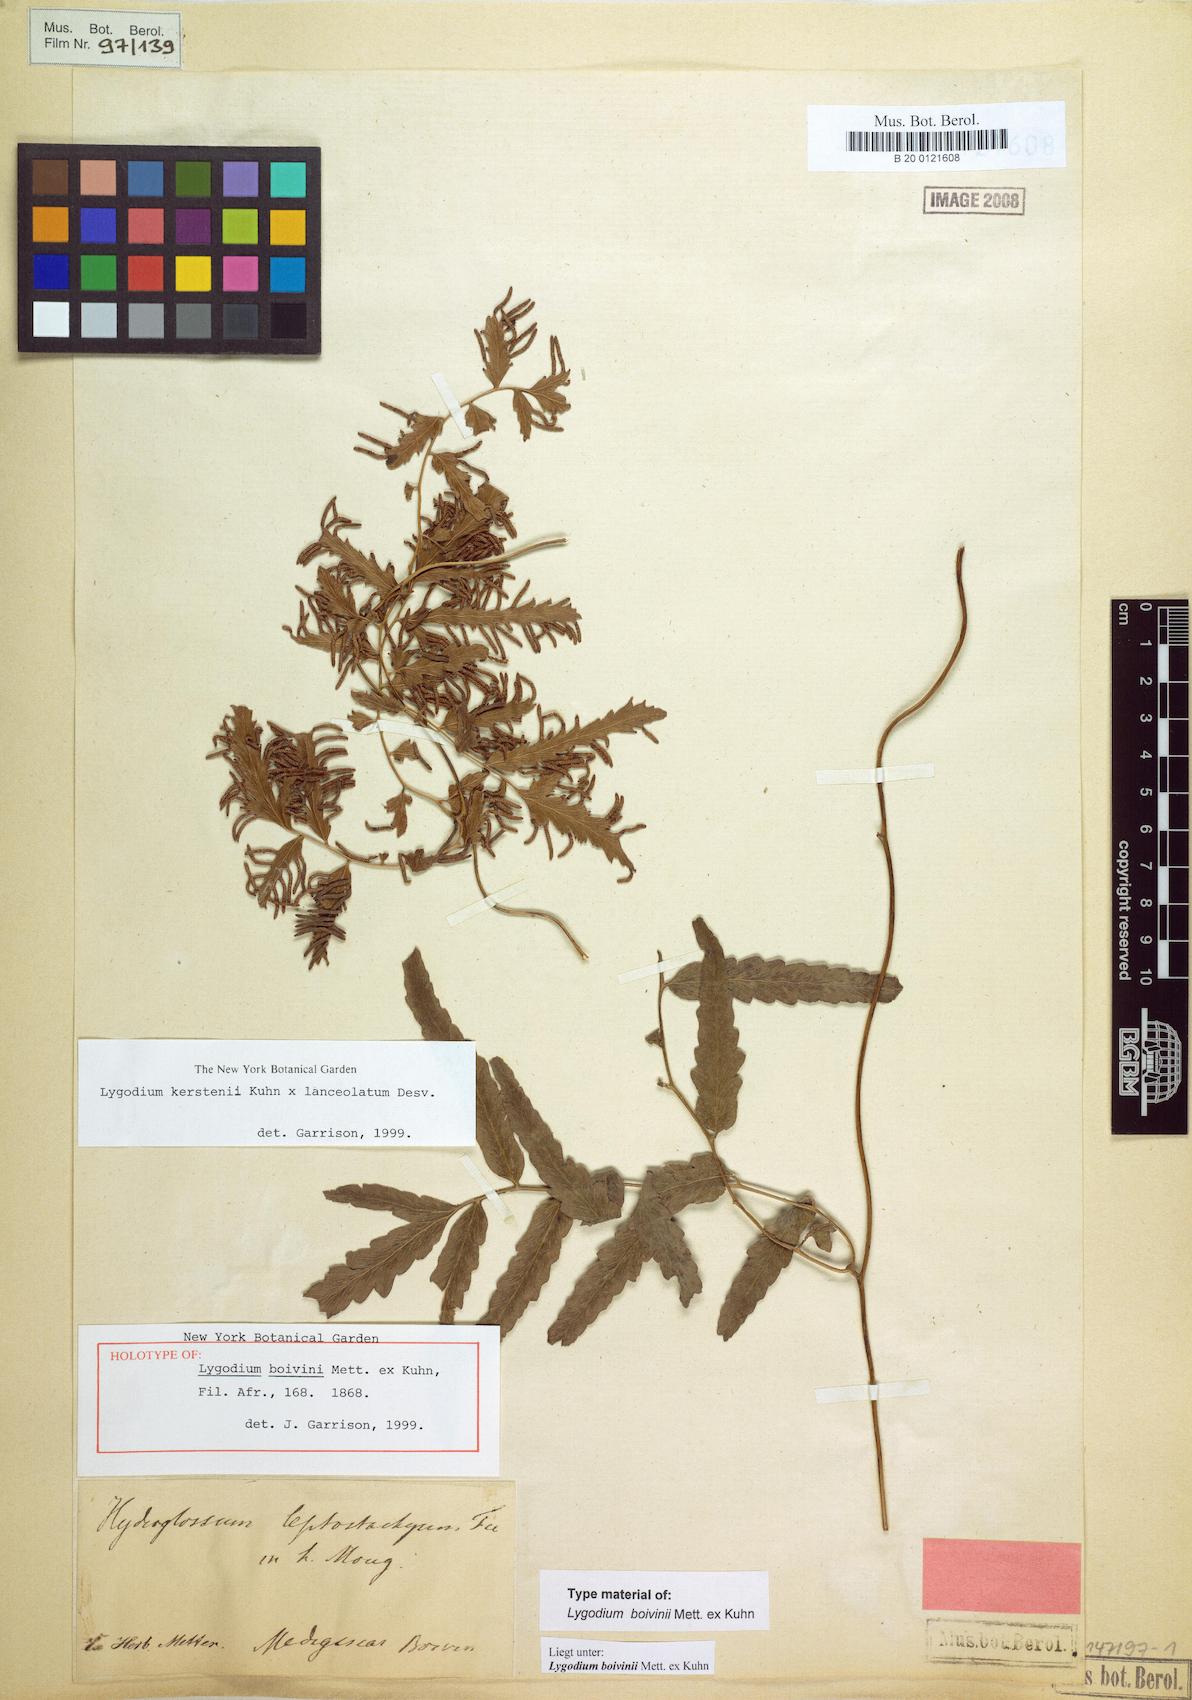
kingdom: Plantae
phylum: Tracheophyta
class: Polypodiopsida
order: Schizaeales
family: Lygodiaceae
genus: Lygodium
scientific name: Lygodium boivinii
